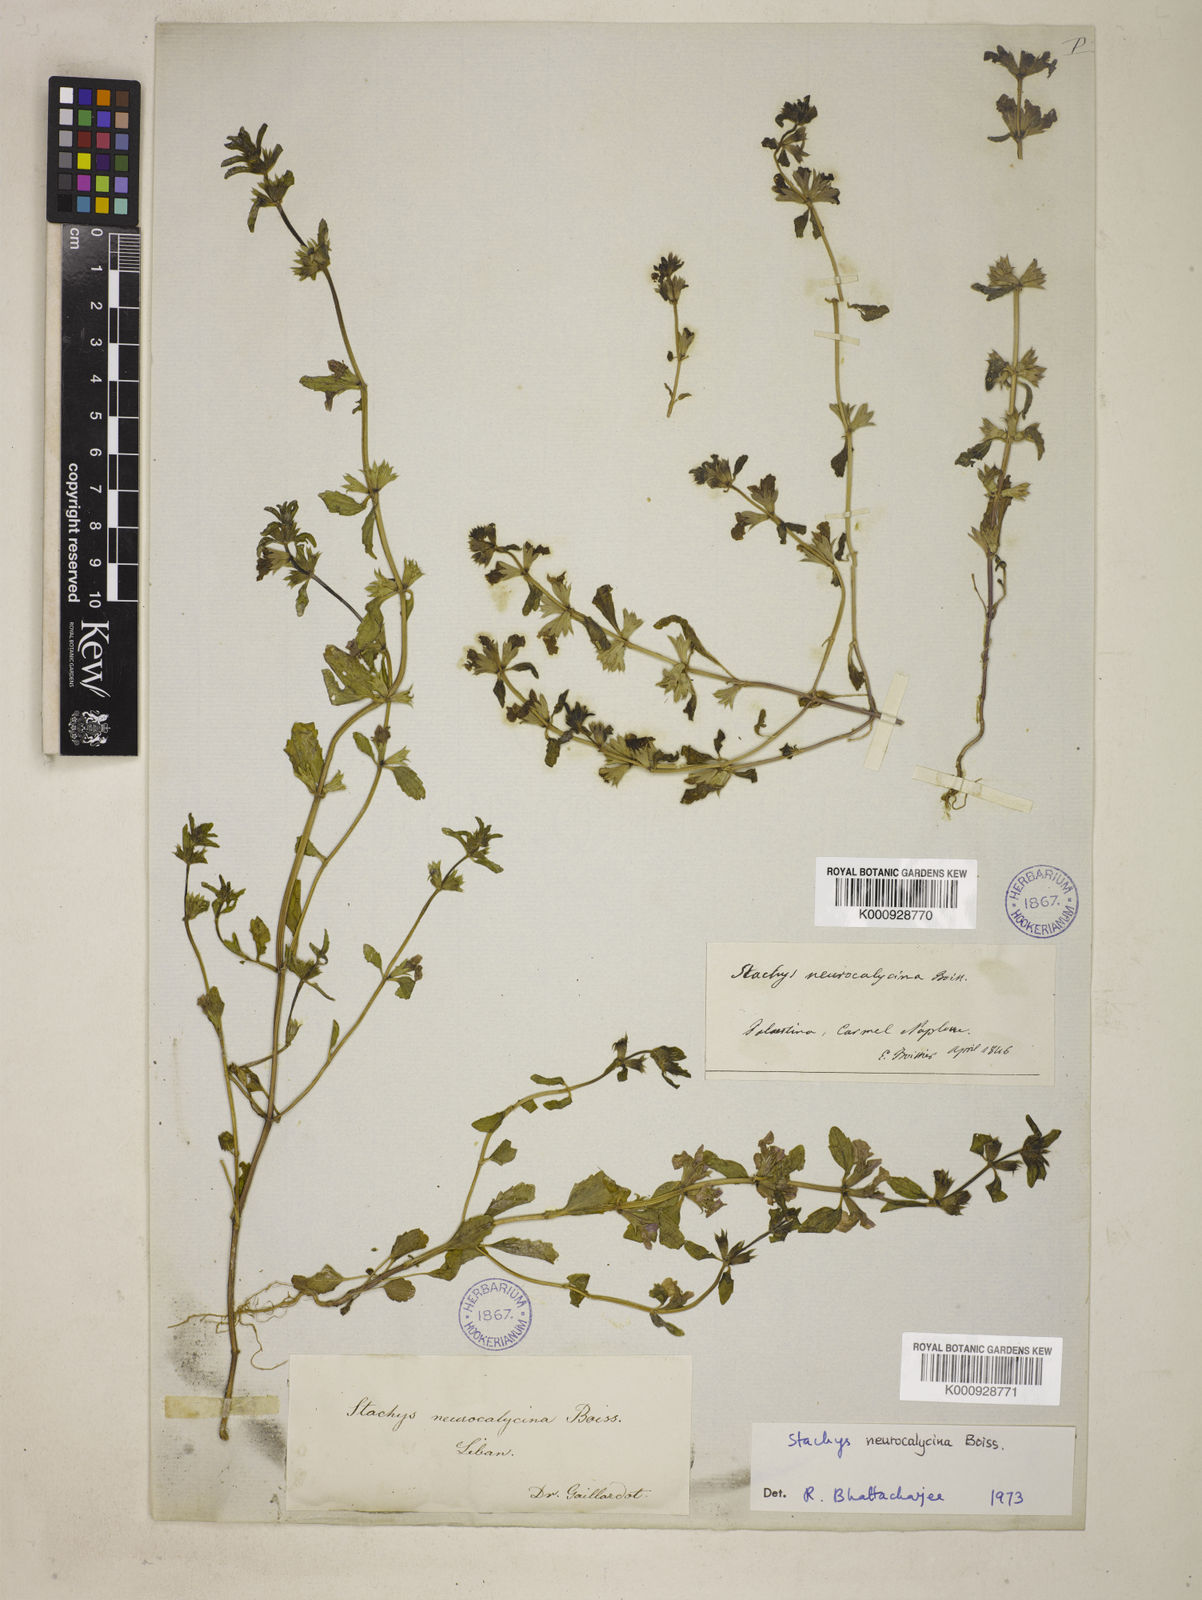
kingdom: Plantae
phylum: Tracheophyta
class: Magnoliopsida
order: Lamiales
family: Lamiaceae
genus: Stachys
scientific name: Stachys neurocalycina
